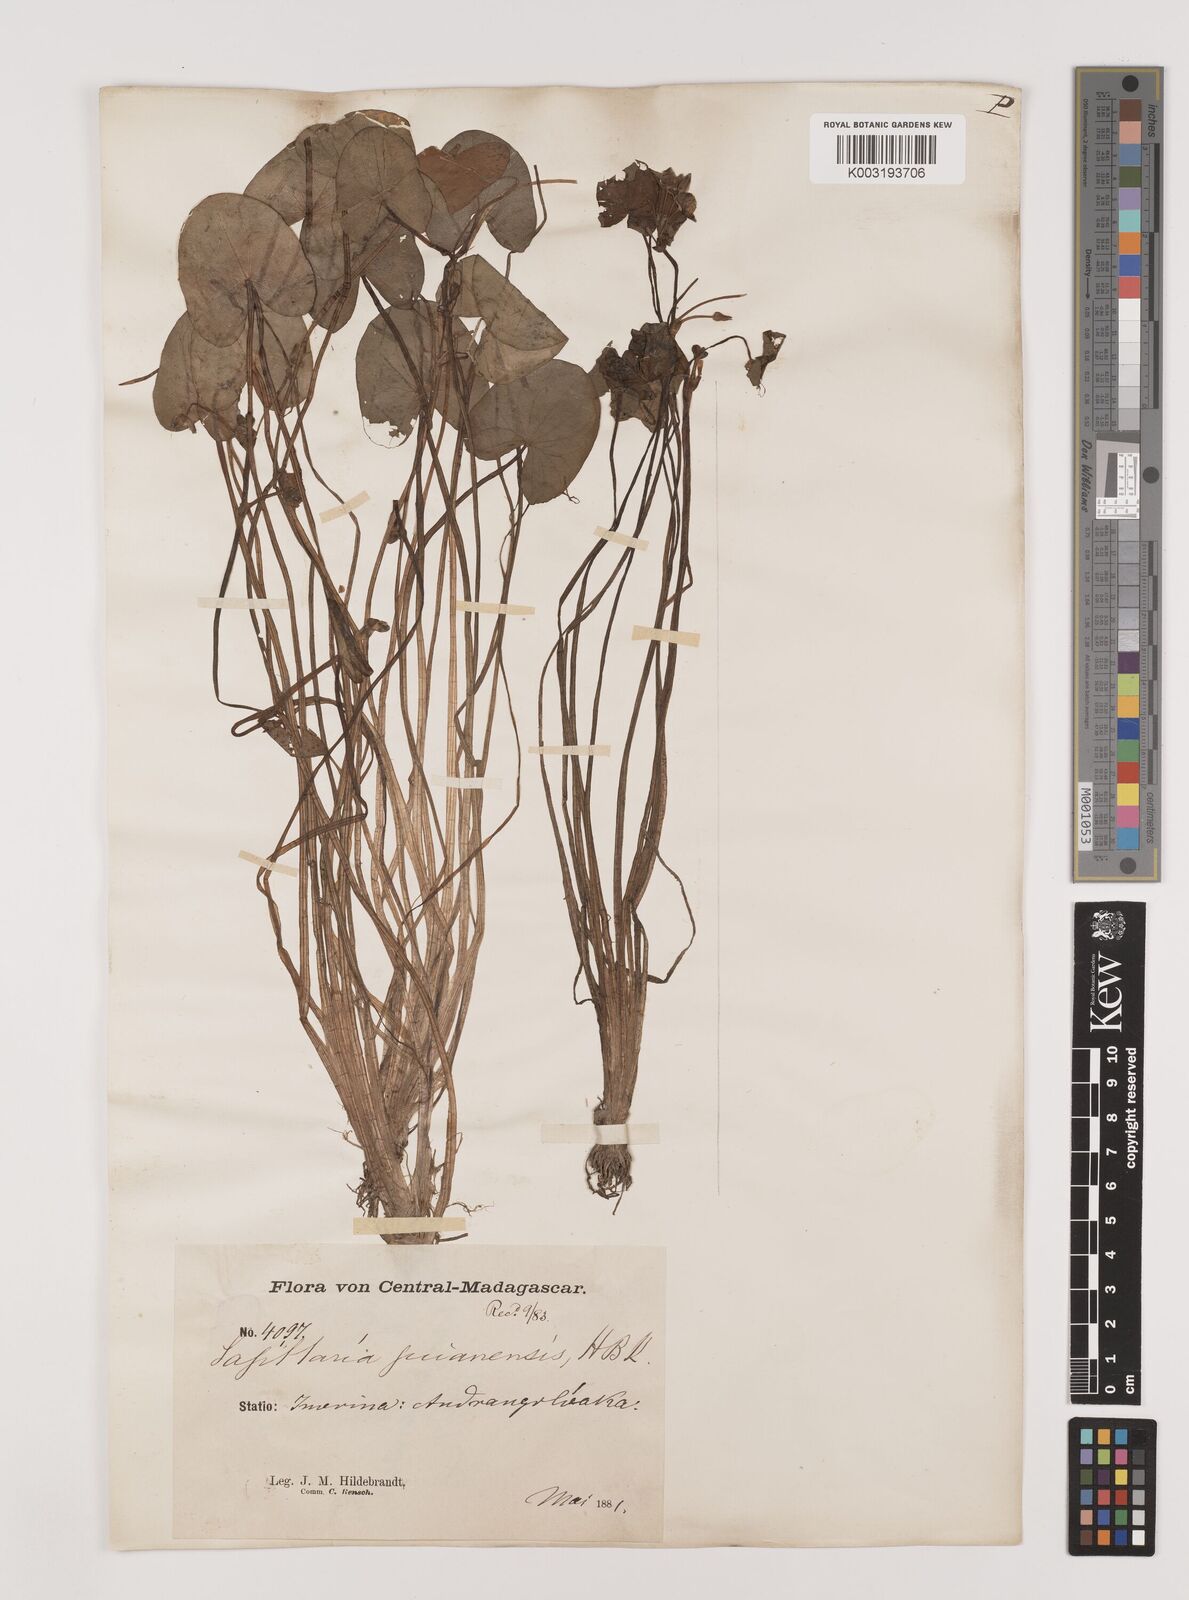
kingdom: Plantae
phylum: Tracheophyta
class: Liliopsida
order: Alismatales
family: Alismataceae
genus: Sagittaria
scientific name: Sagittaria guayanensis
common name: Guyanese arrowhead
